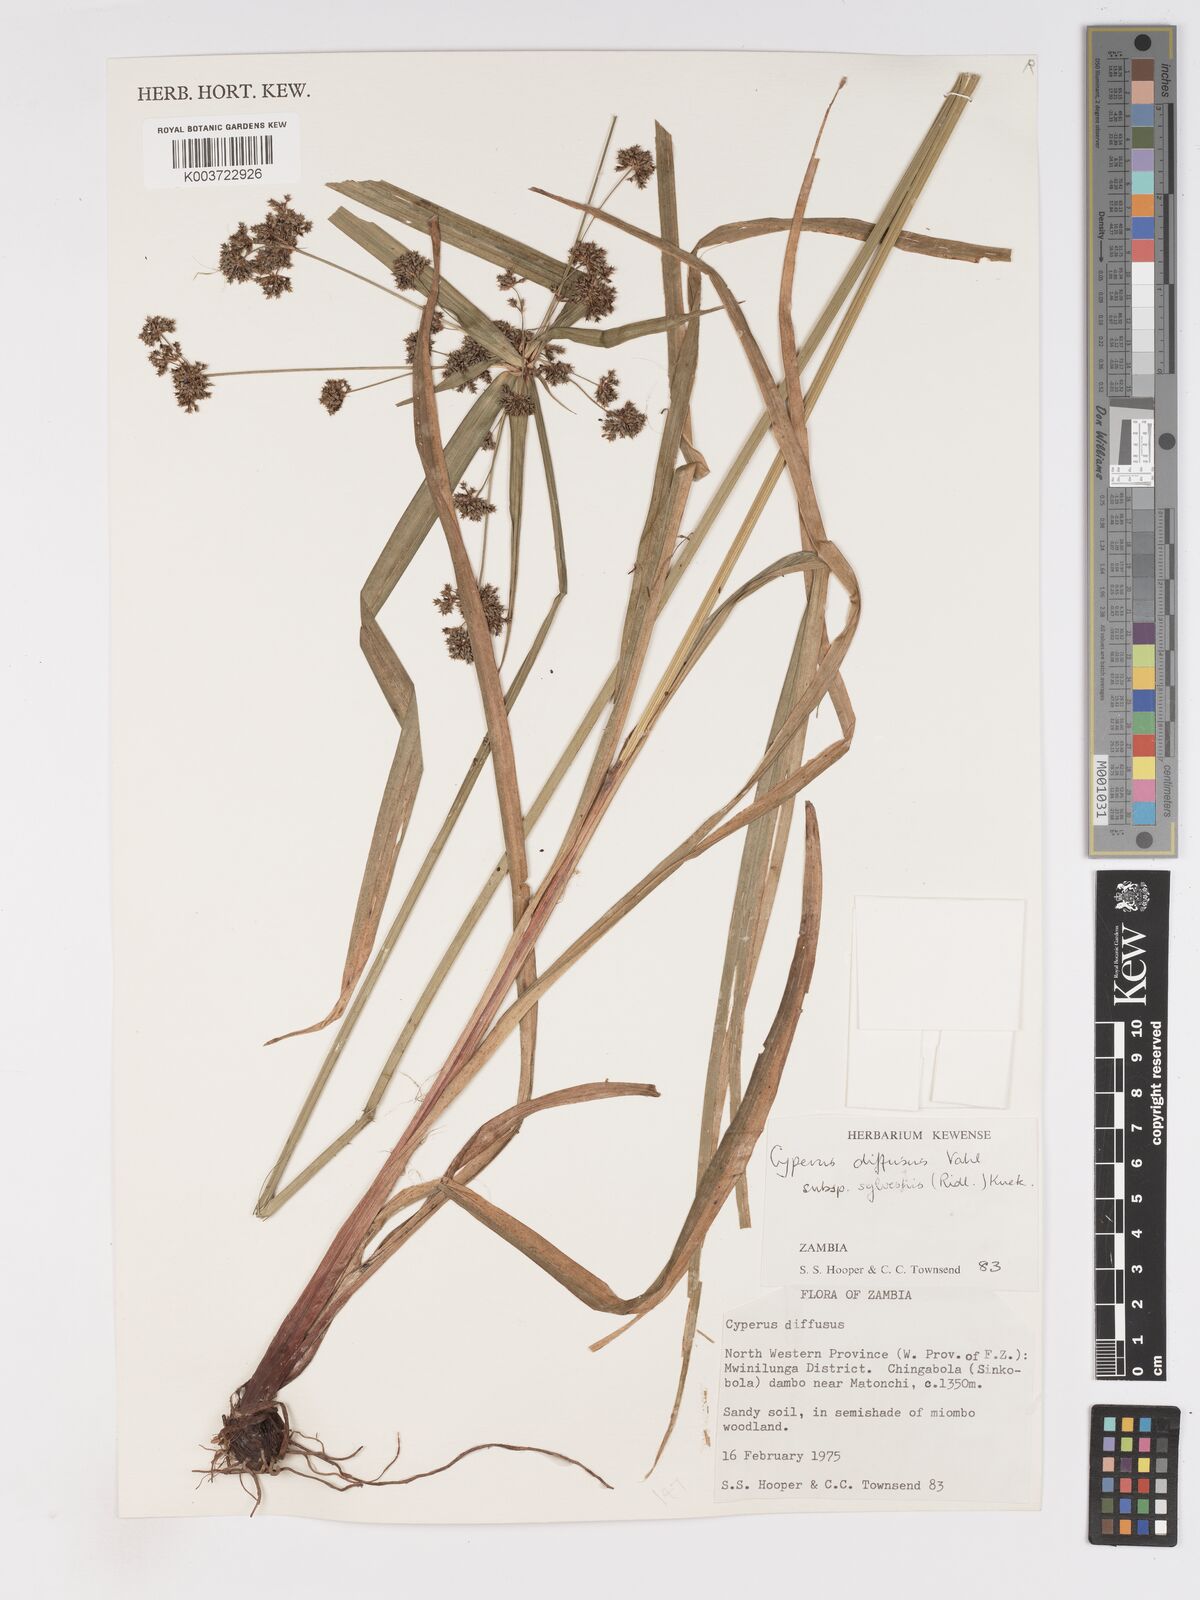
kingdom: Plantae
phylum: Tracheophyta
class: Liliopsida
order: Poales
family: Cyperaceae
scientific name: Cyperaceae
